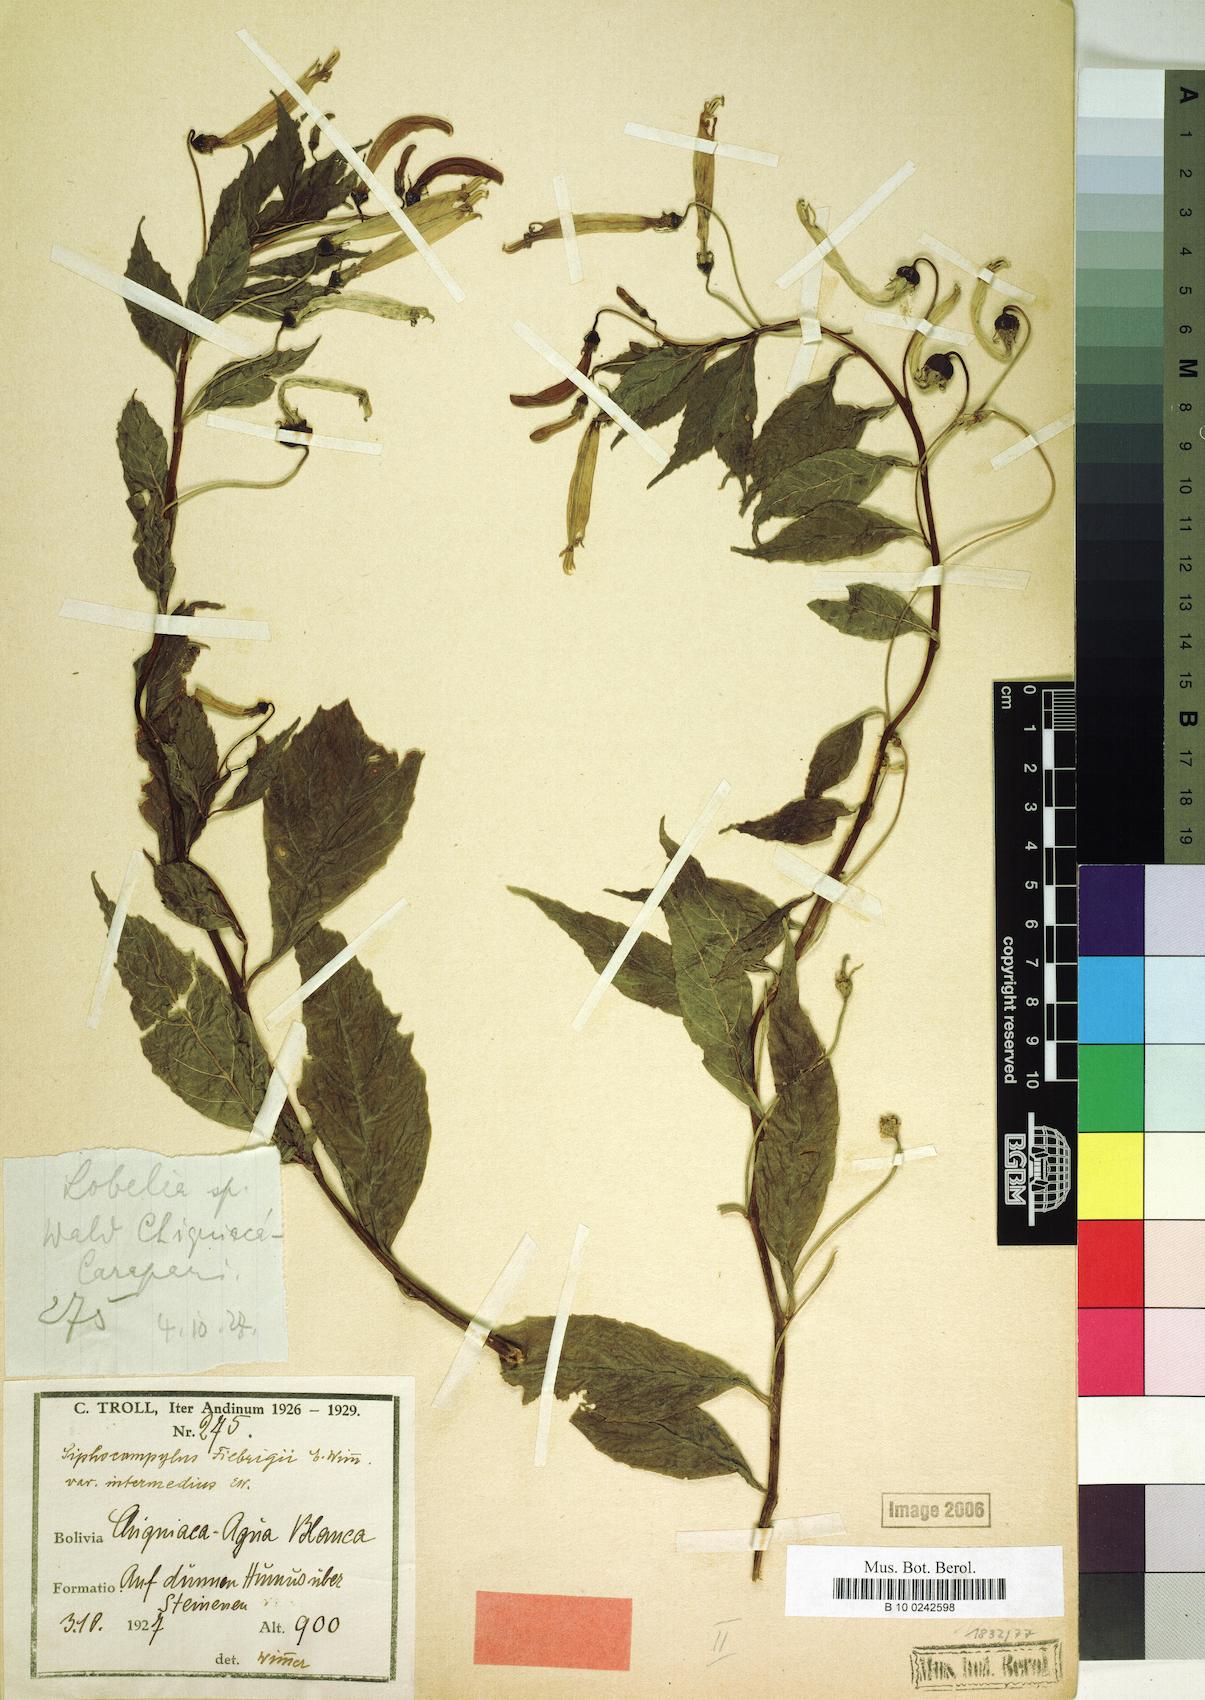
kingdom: Plantae
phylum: Tracheophyta
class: Magnoliopsida
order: Asterales
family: Campanulaceae
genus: Siphocampylus
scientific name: Siphocampylus fiebrigii
